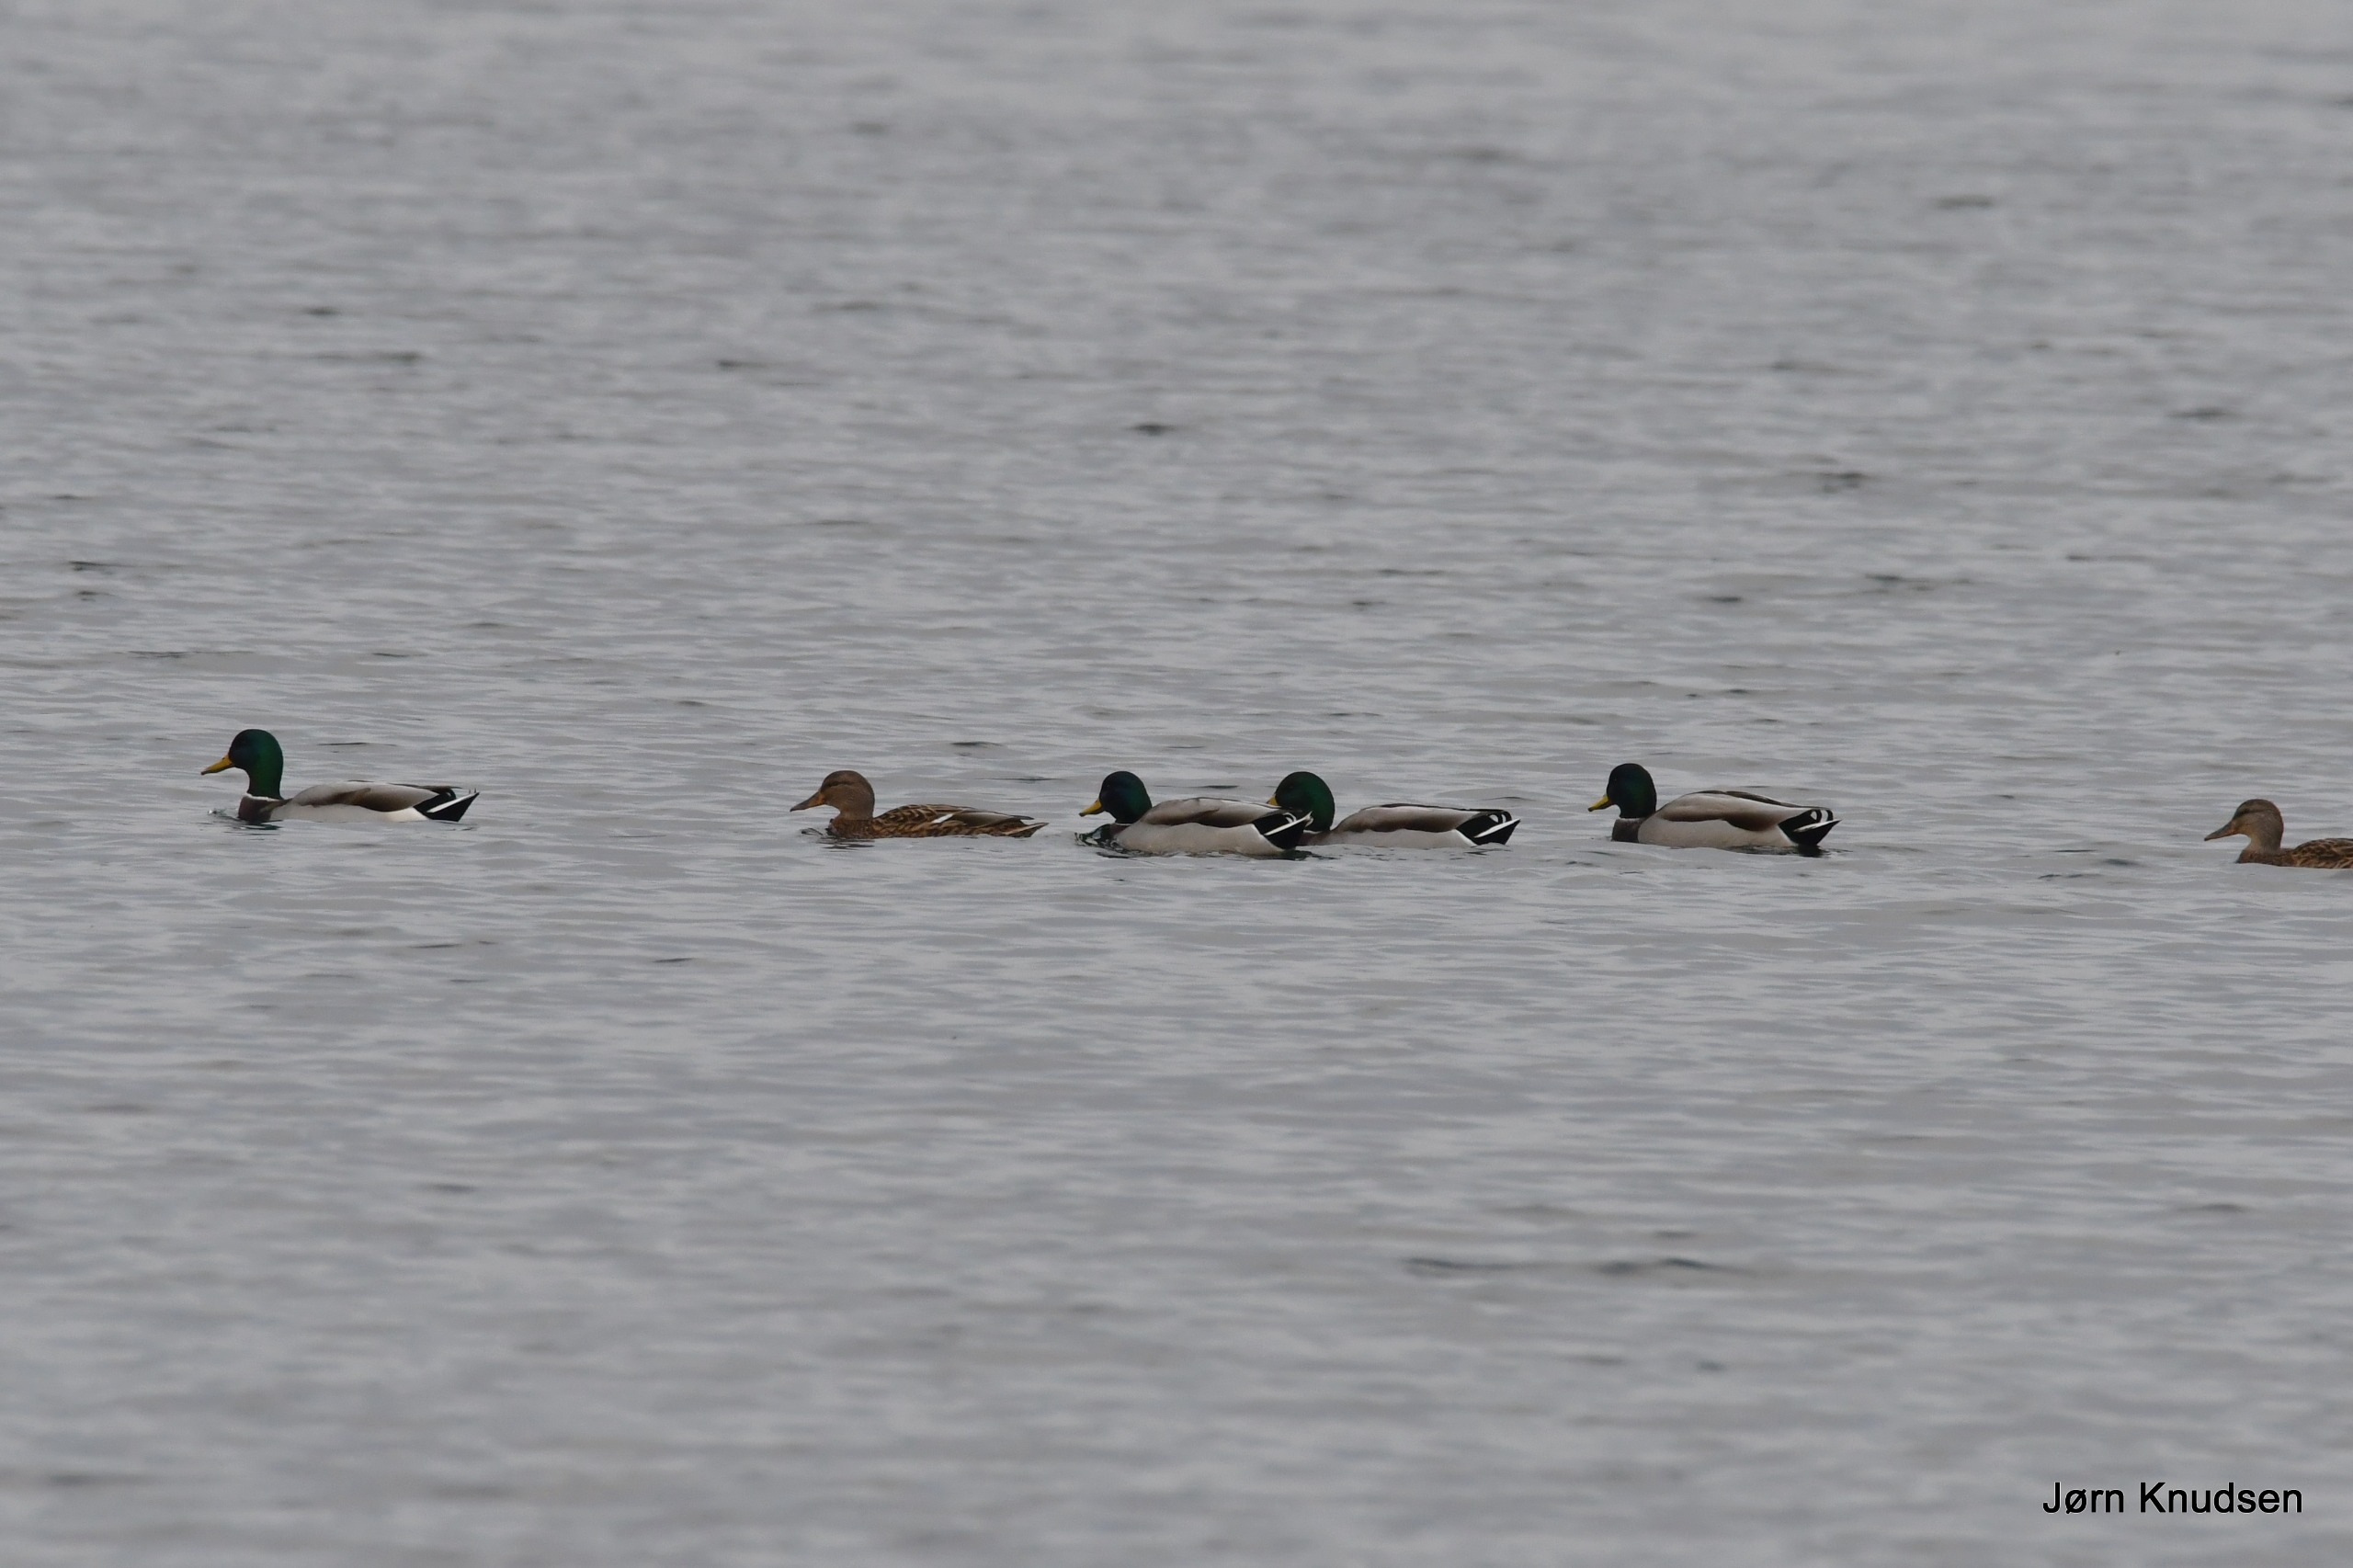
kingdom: Animalia
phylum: Chordata
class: Aves
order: Anseriformes
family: Anatidae
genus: Anas
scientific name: Anas platyrhynchos
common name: Gråand
